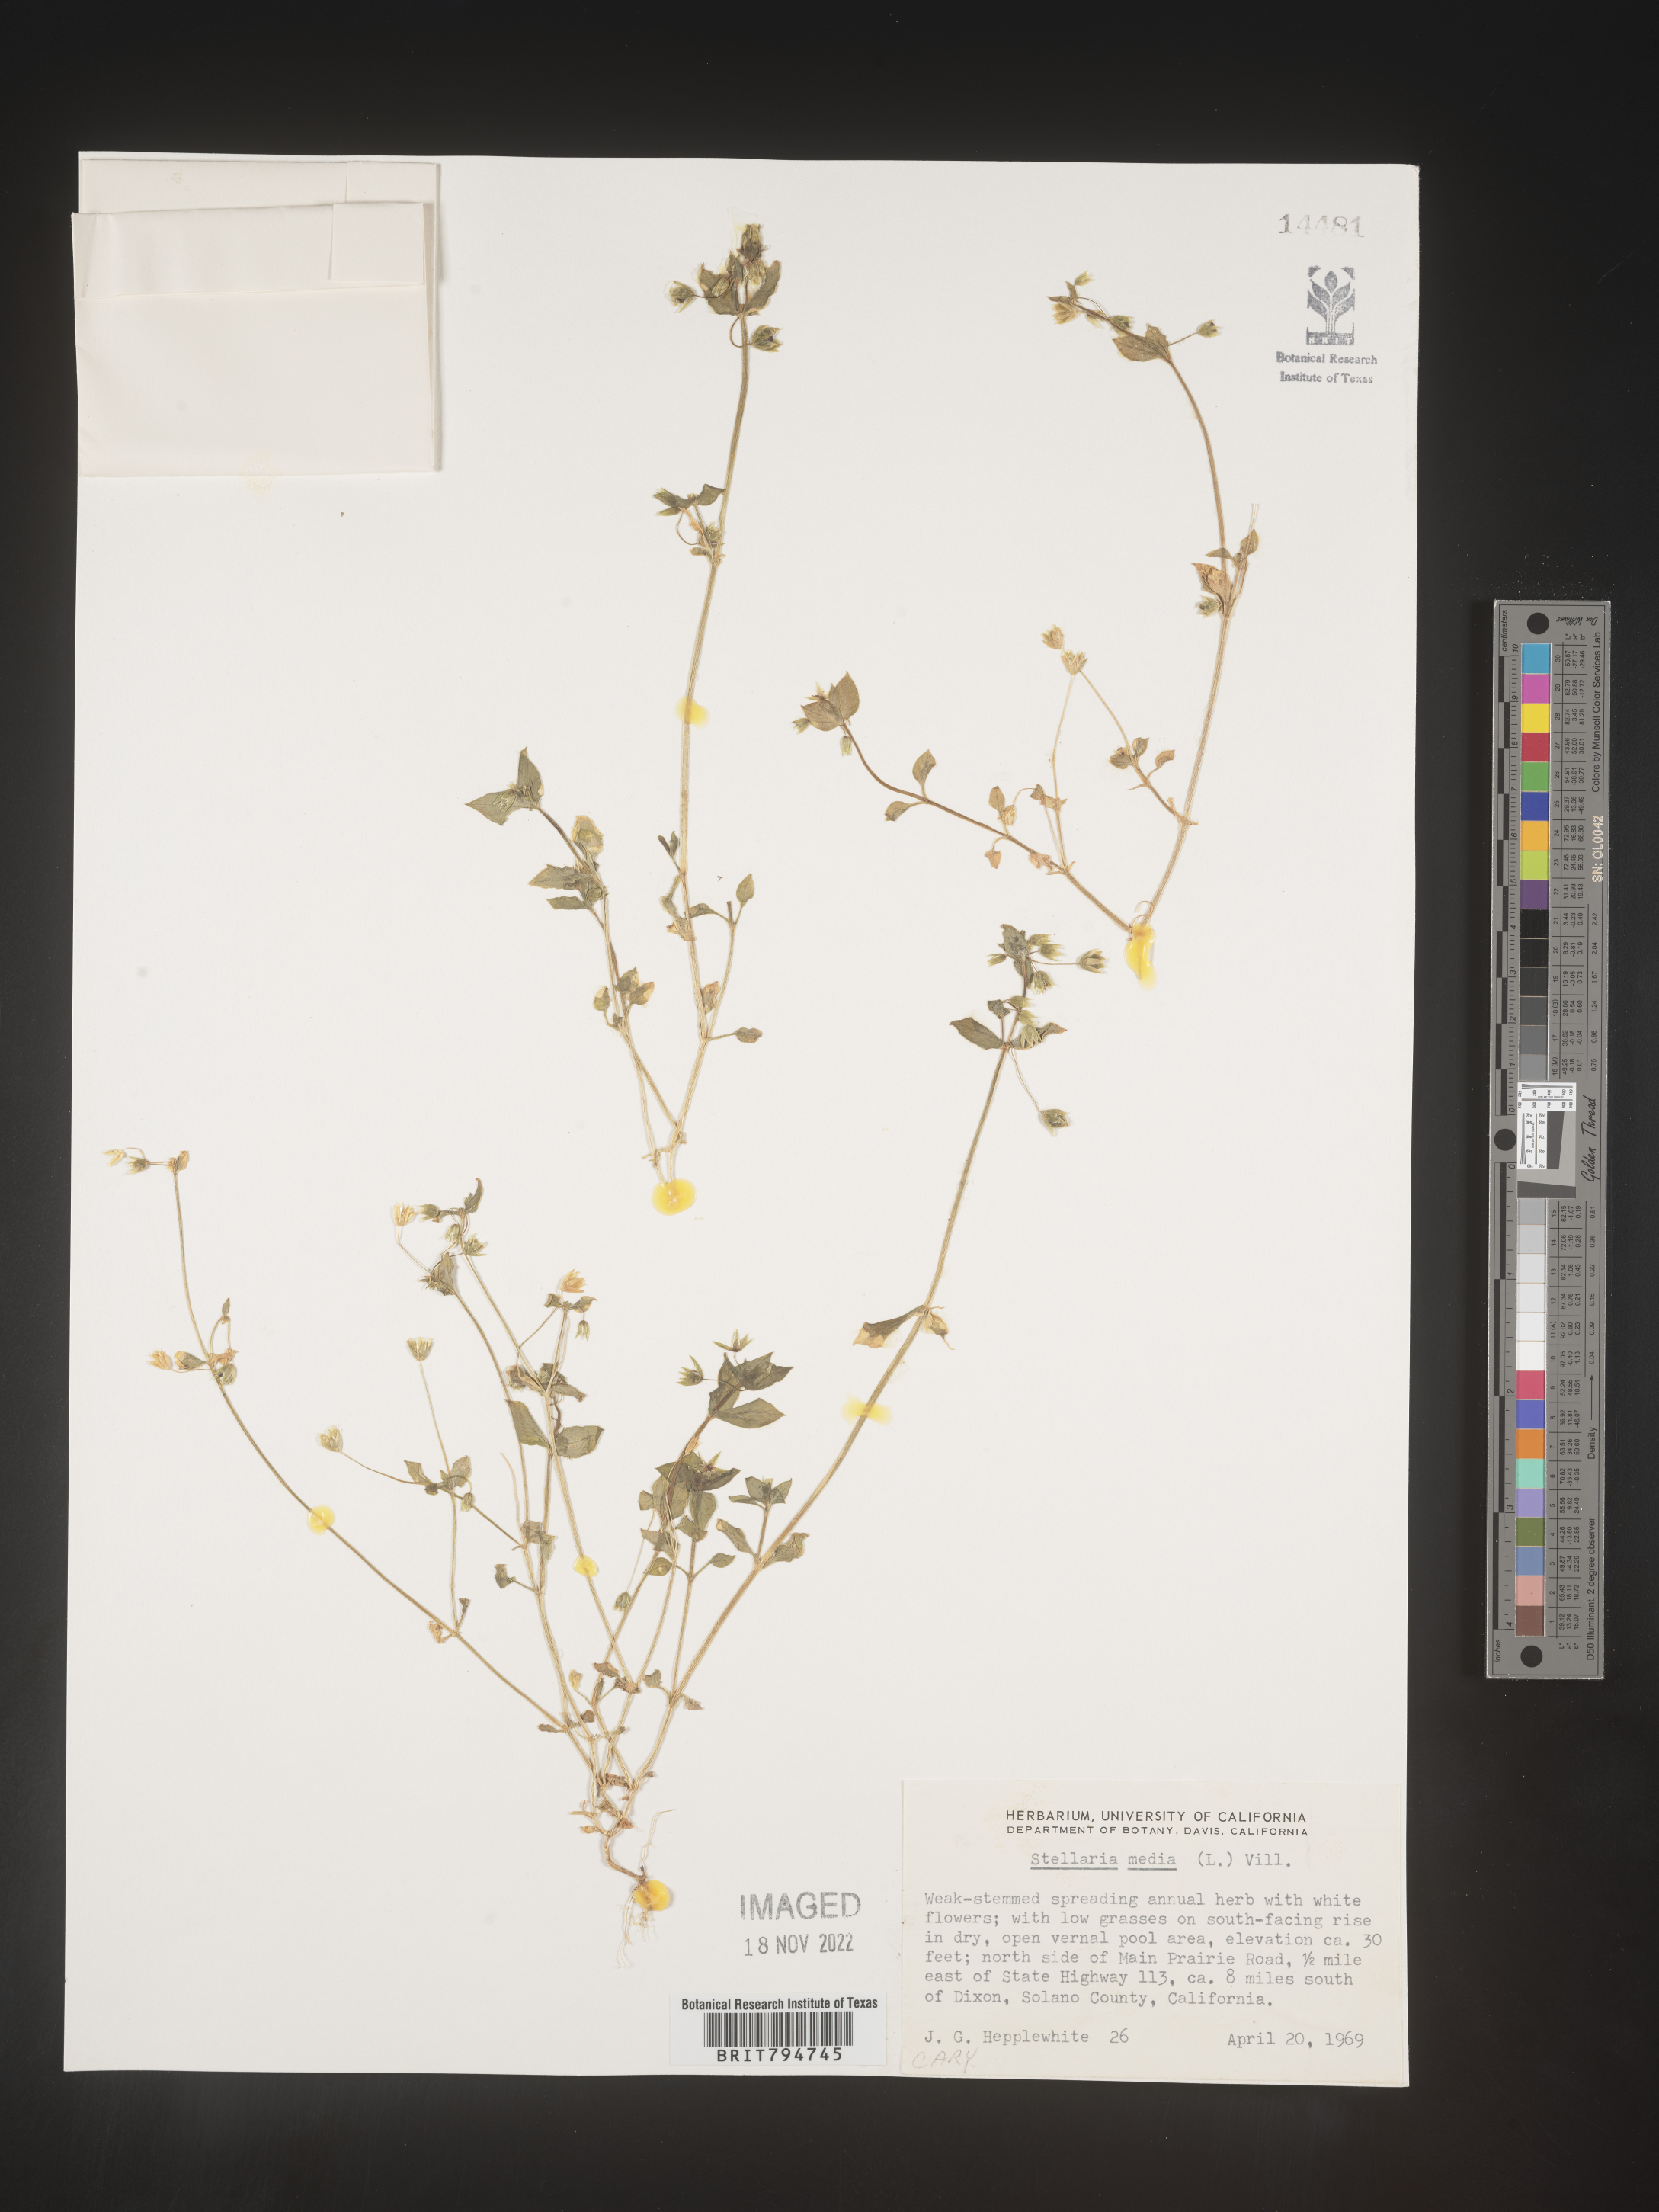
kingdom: Plantae
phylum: Tracheophyta
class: Magnoliopsida
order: Caryophyllales
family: Caryophyllaceae
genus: Stellaria
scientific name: Stellaria media
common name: Common chickweed
